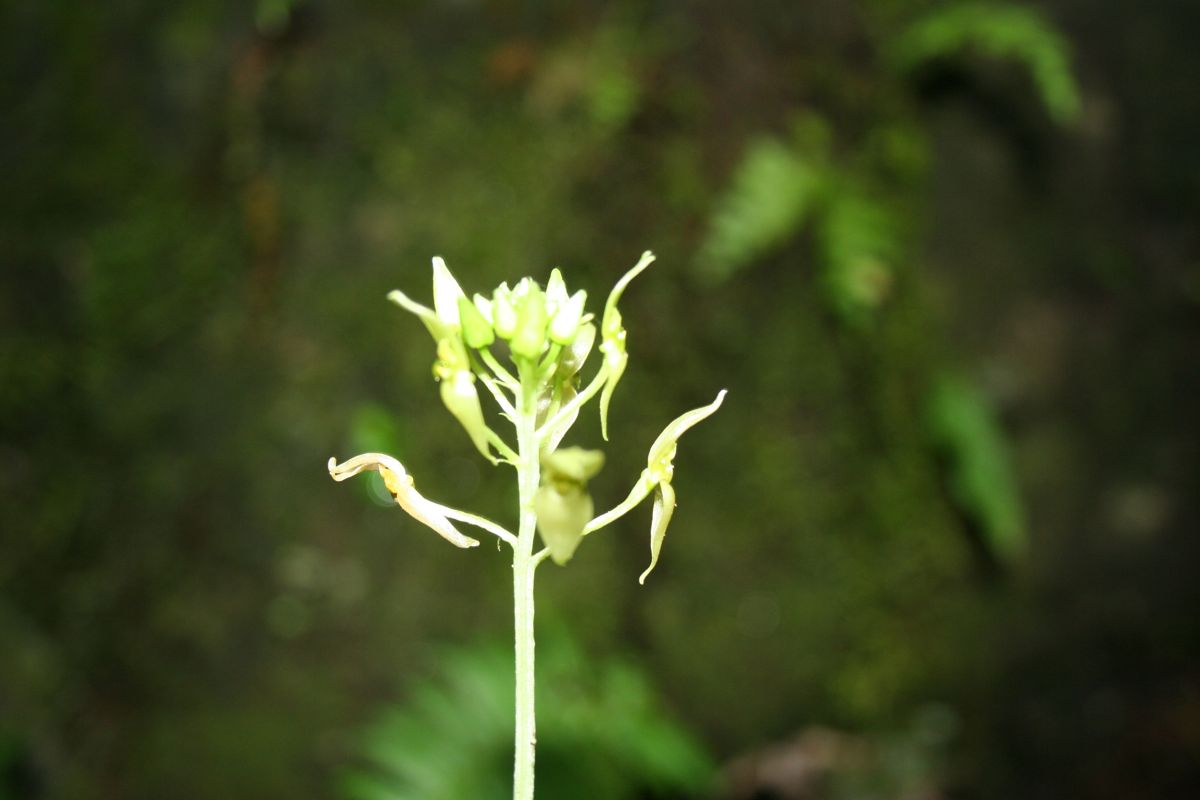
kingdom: Plantae
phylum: Tracheophyta
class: Liliopsida
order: Asparagales
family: Orchidaceae
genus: Malaxis
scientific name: Malaxis lepanthiflora
